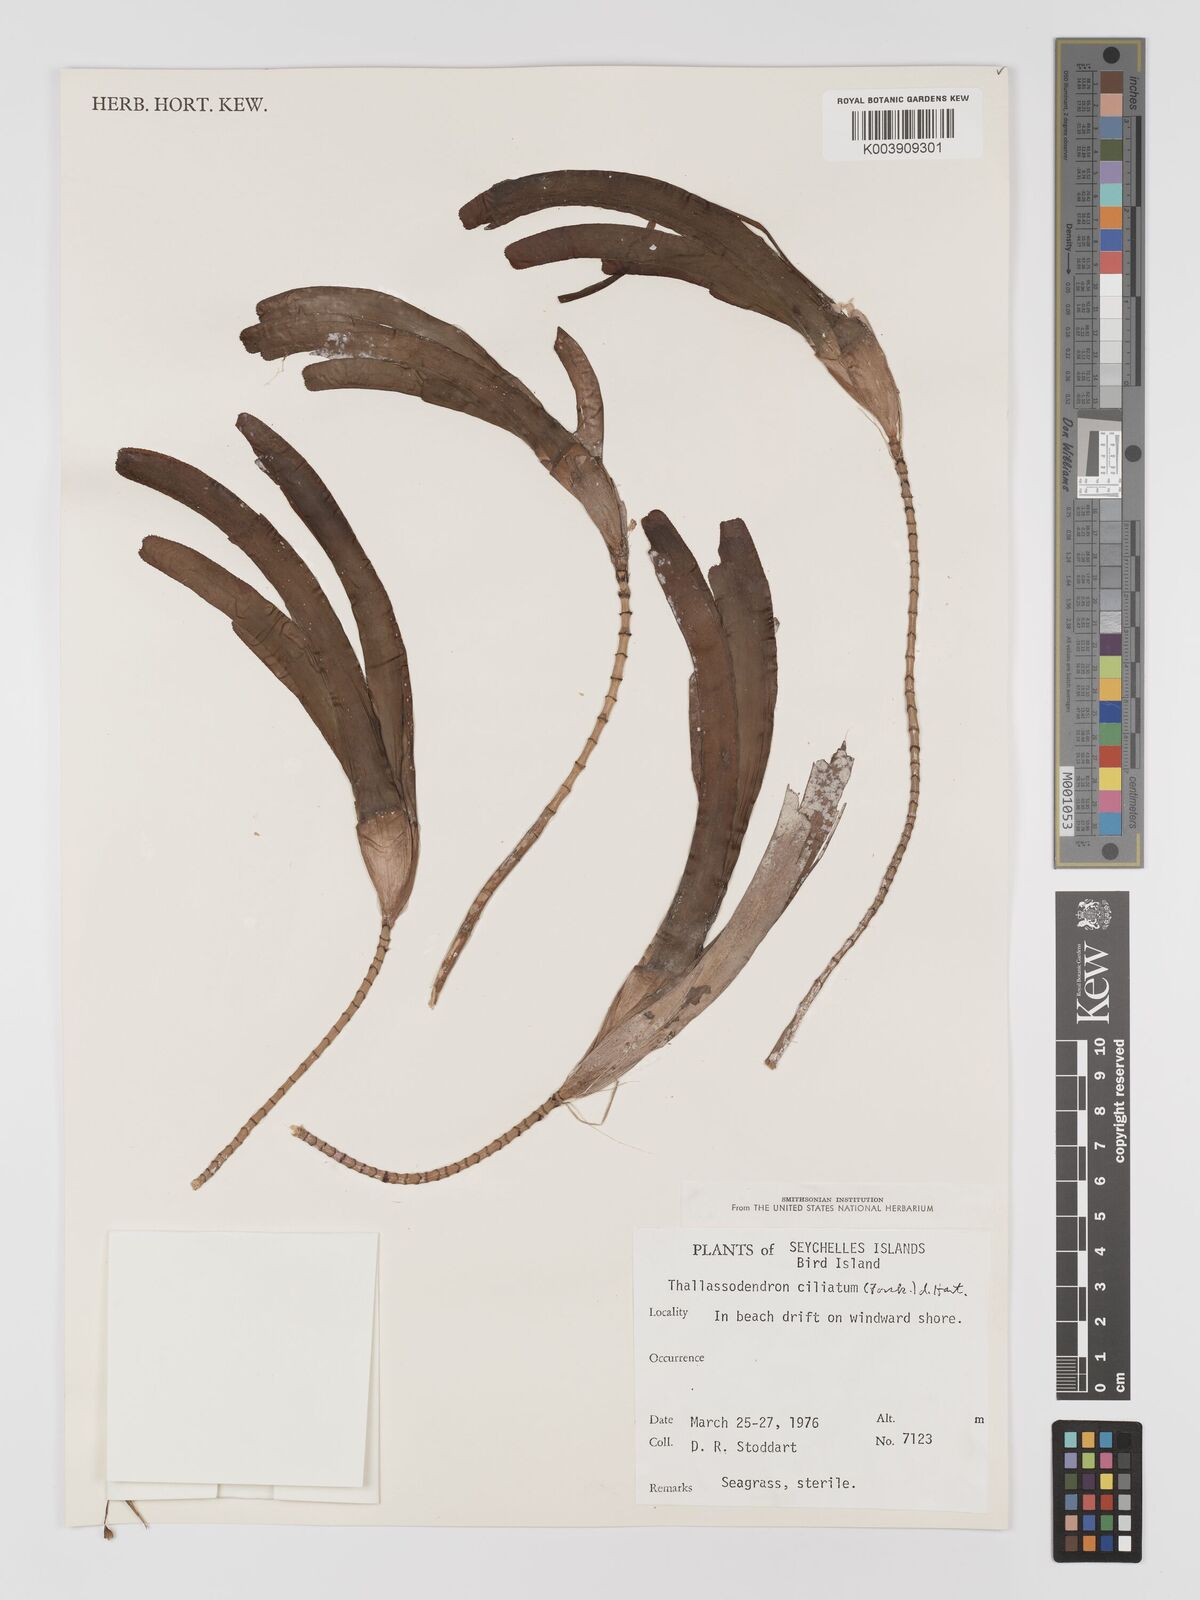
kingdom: Plantae
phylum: Tracheophyta
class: Liliopsida
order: Alismatales
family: Cymodoceaceae
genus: Thalassodendron
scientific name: Thalassodendron ciliatum
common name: Species code: tc
